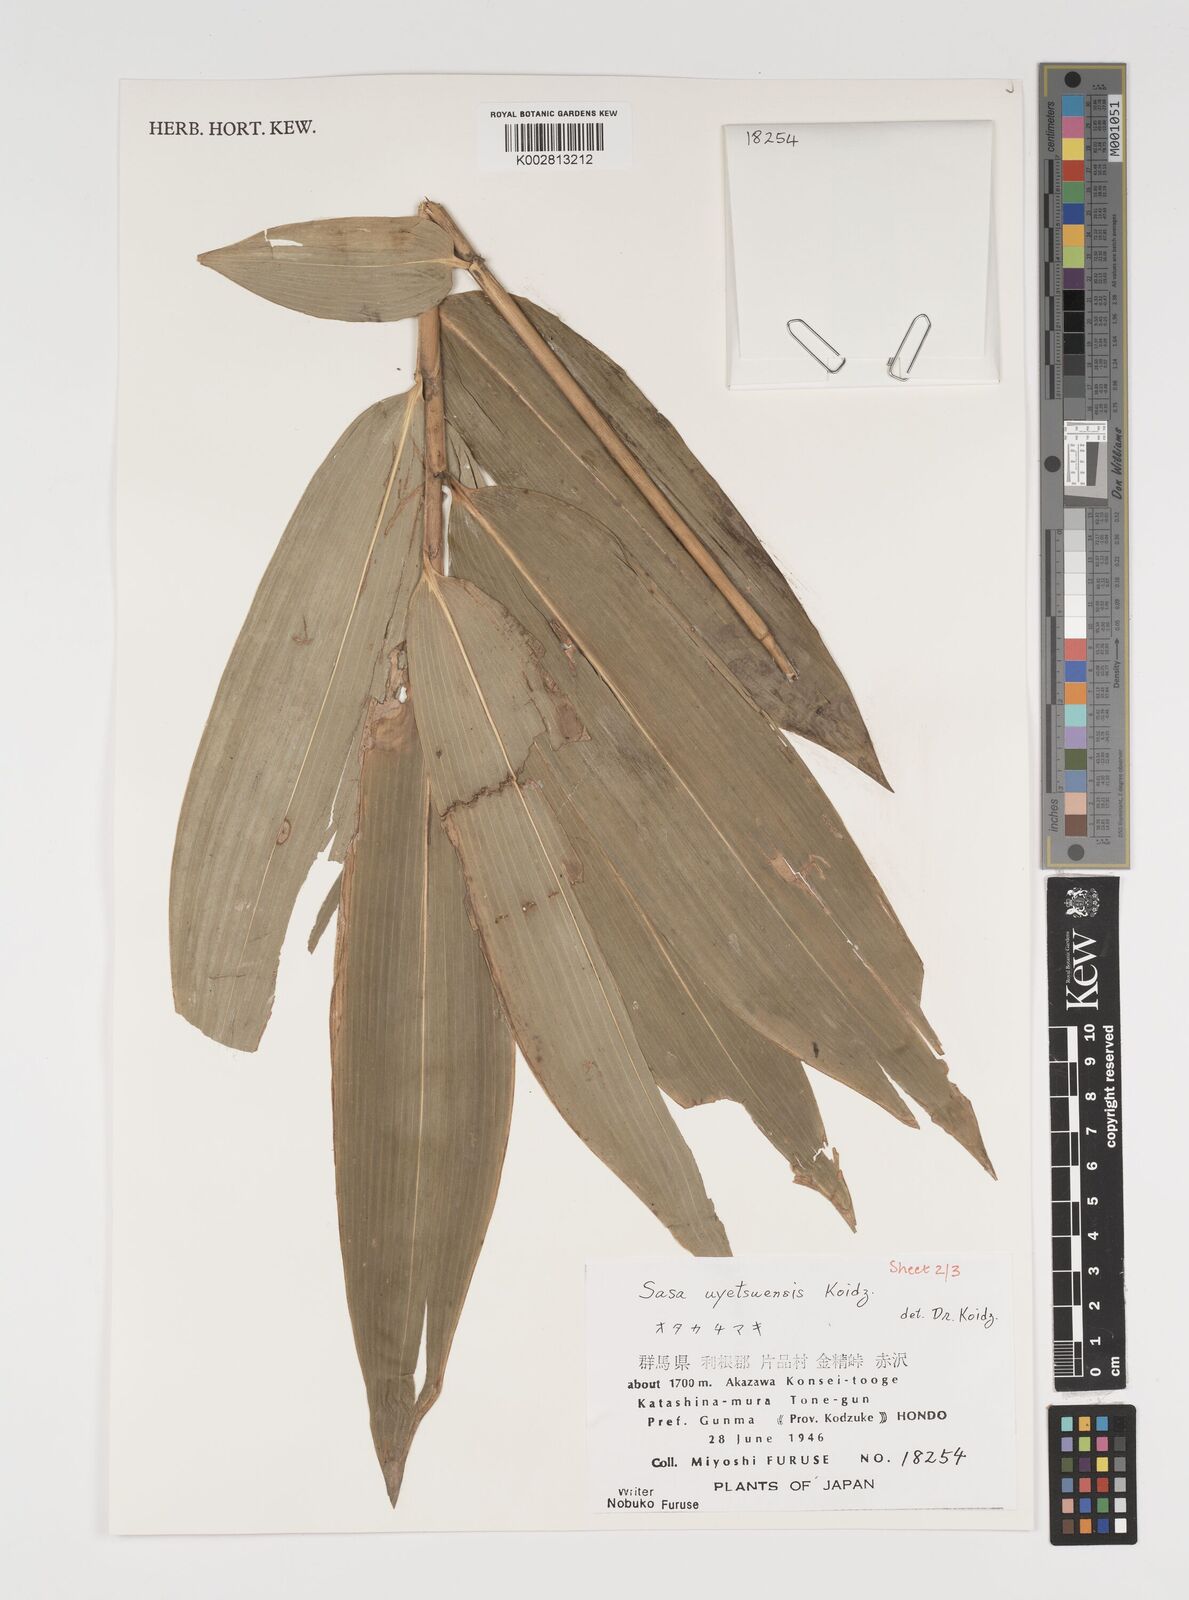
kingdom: Plantae
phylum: Tracheophyta
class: Liliopsida
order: Poales
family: Poaceae
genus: Sasa
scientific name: Sasa senanensis
